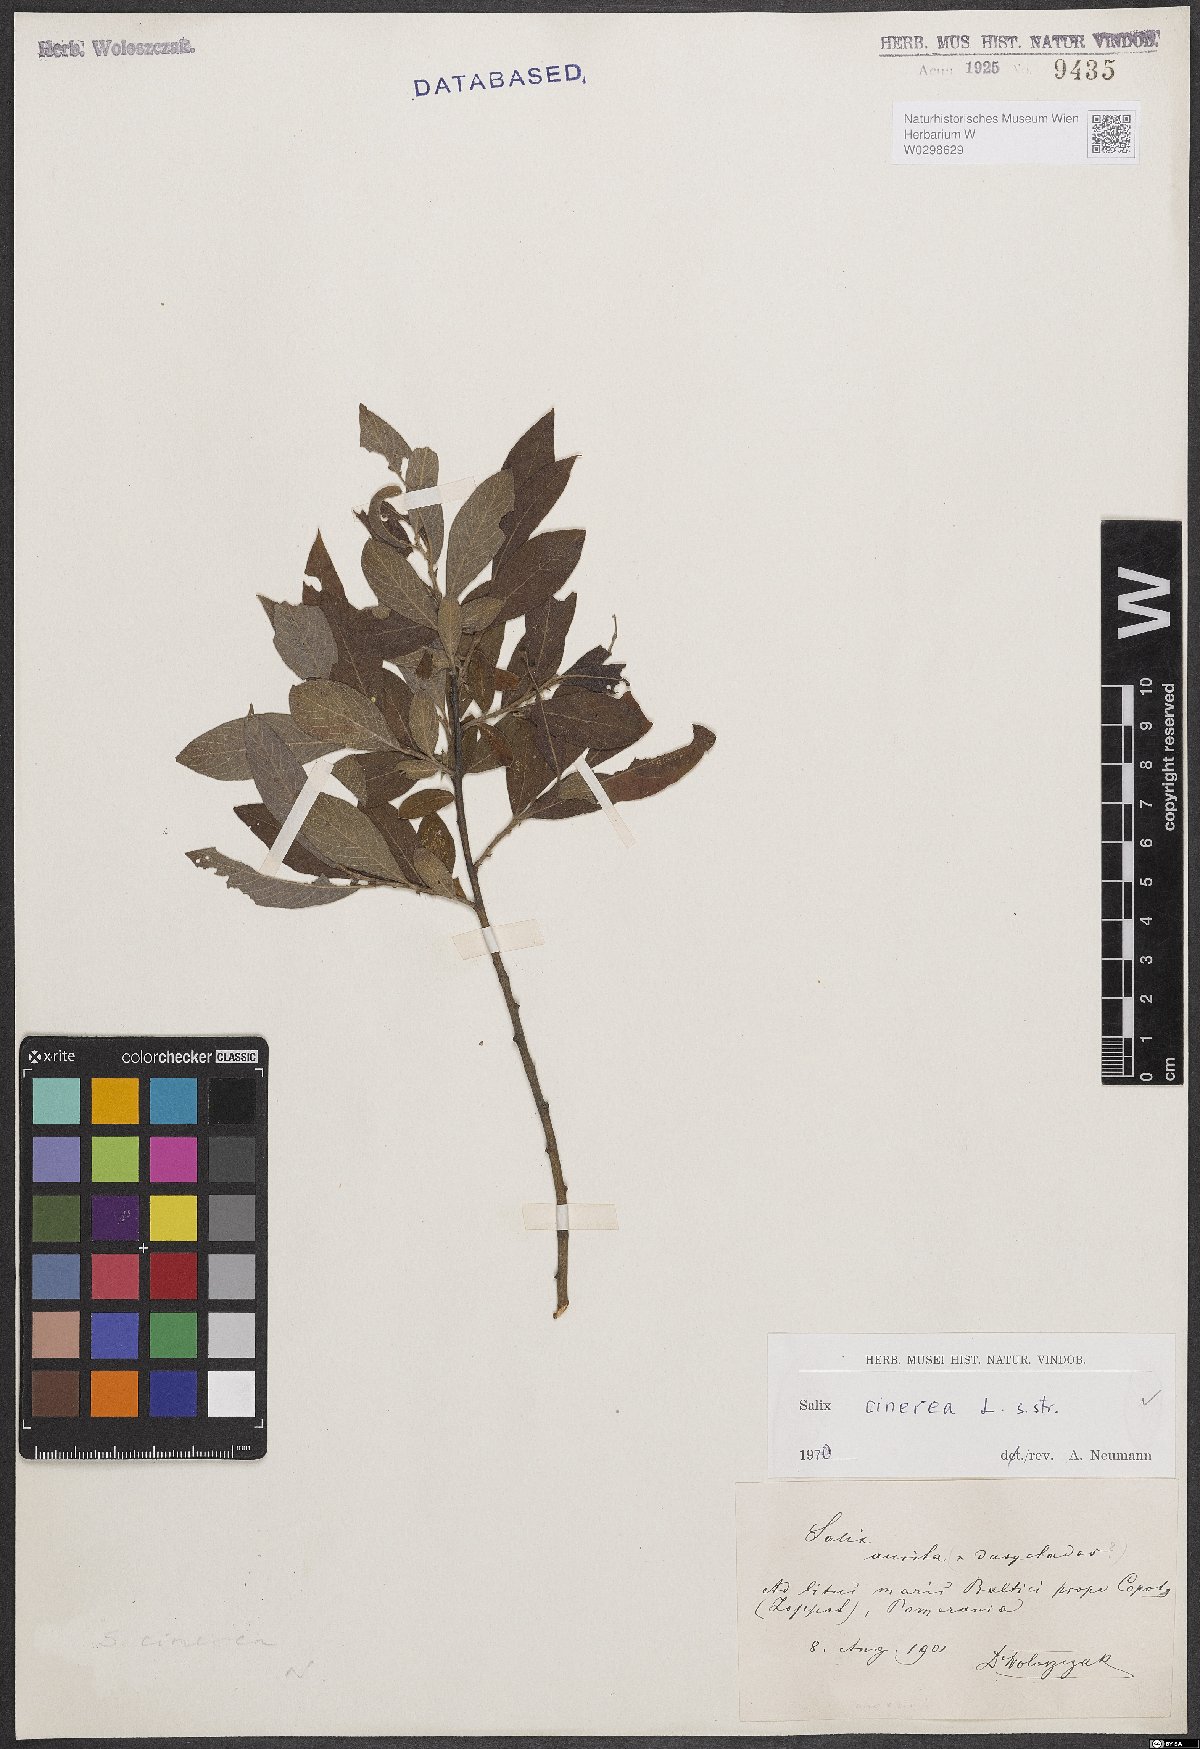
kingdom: Plantae
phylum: Tracheophyta
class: Magnoliopsida
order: Malpighiales
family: Salicaceae
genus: Salix
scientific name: Salix cinerea
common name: Common sallow
